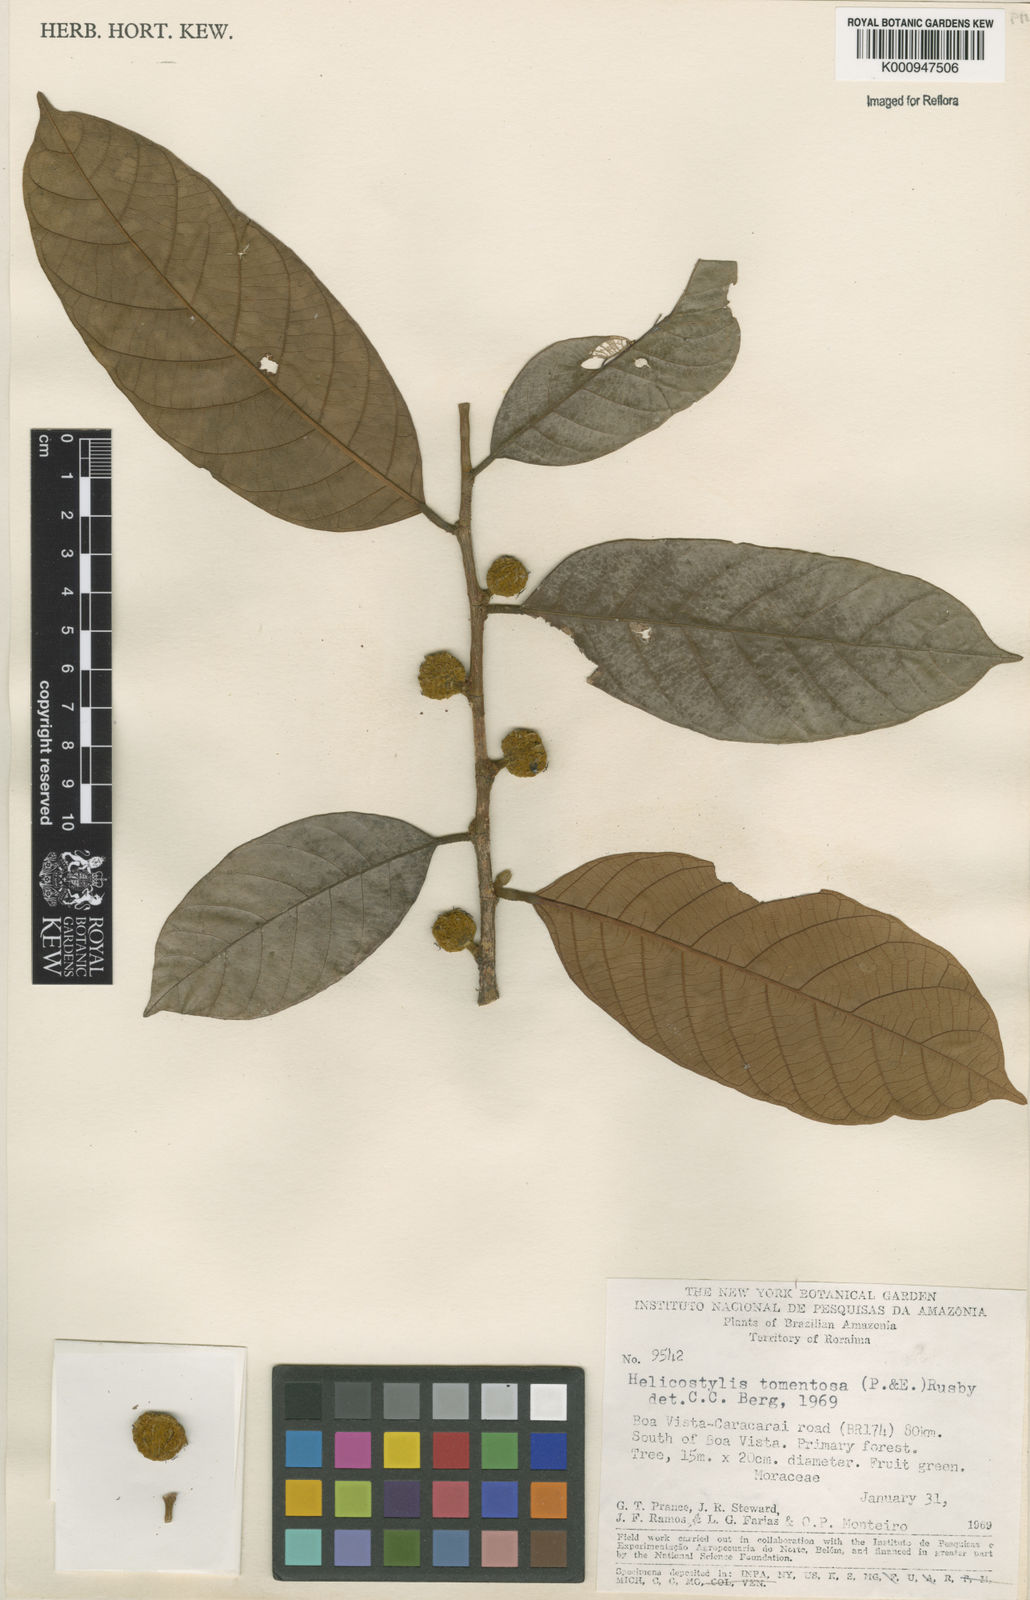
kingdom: Plantae
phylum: Tracheophyta
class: Magnoliopsida
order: Rosales
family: Moraceae
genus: Helicostylis
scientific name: Helicostylis
